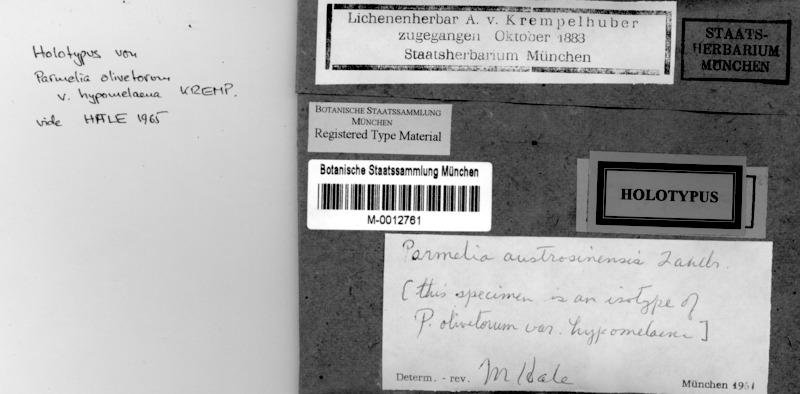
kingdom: Fungi
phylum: Ascomycota
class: Lecanoromycetes
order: Lecanorales
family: Parmeliaceae
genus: Parmotrema
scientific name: Parmotrema austrosinense
